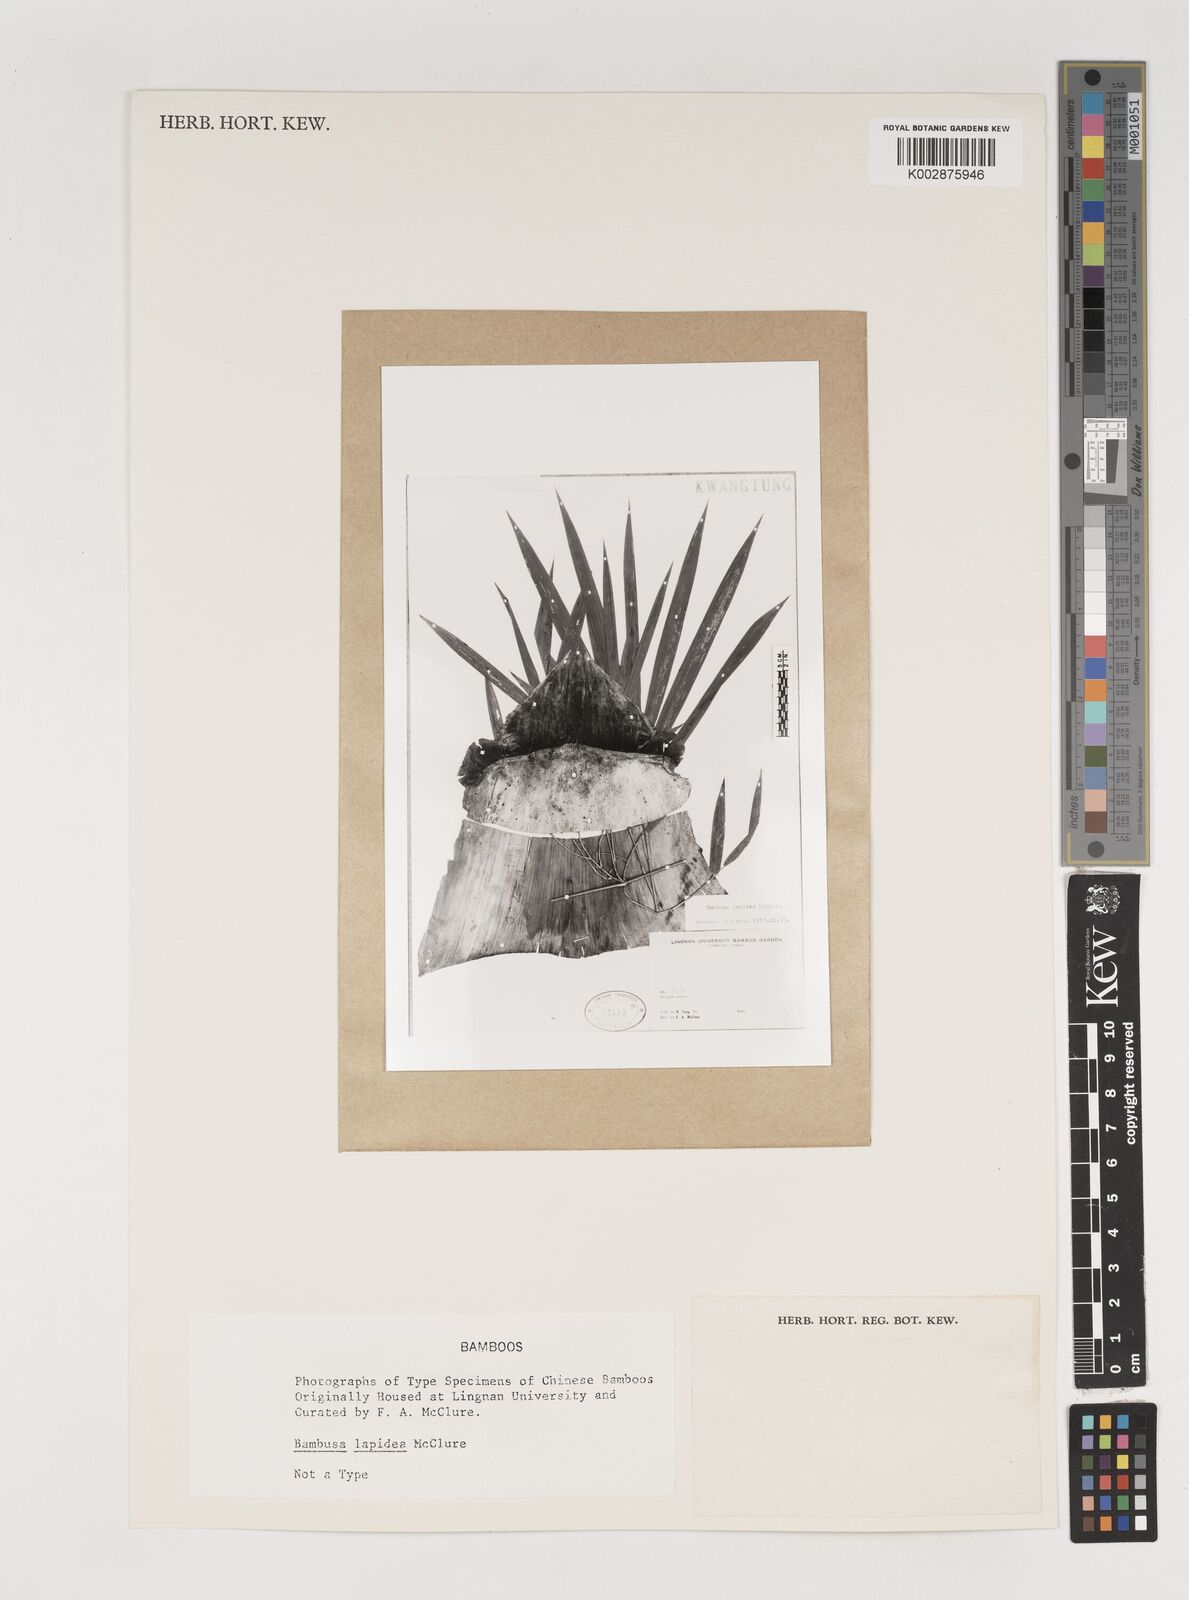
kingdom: Plantae
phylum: Tracheophyta
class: Liliopsida
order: Poales
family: Poaceae
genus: Bambusa
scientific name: Bambusa lapidea
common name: Horsehoof bamboo
